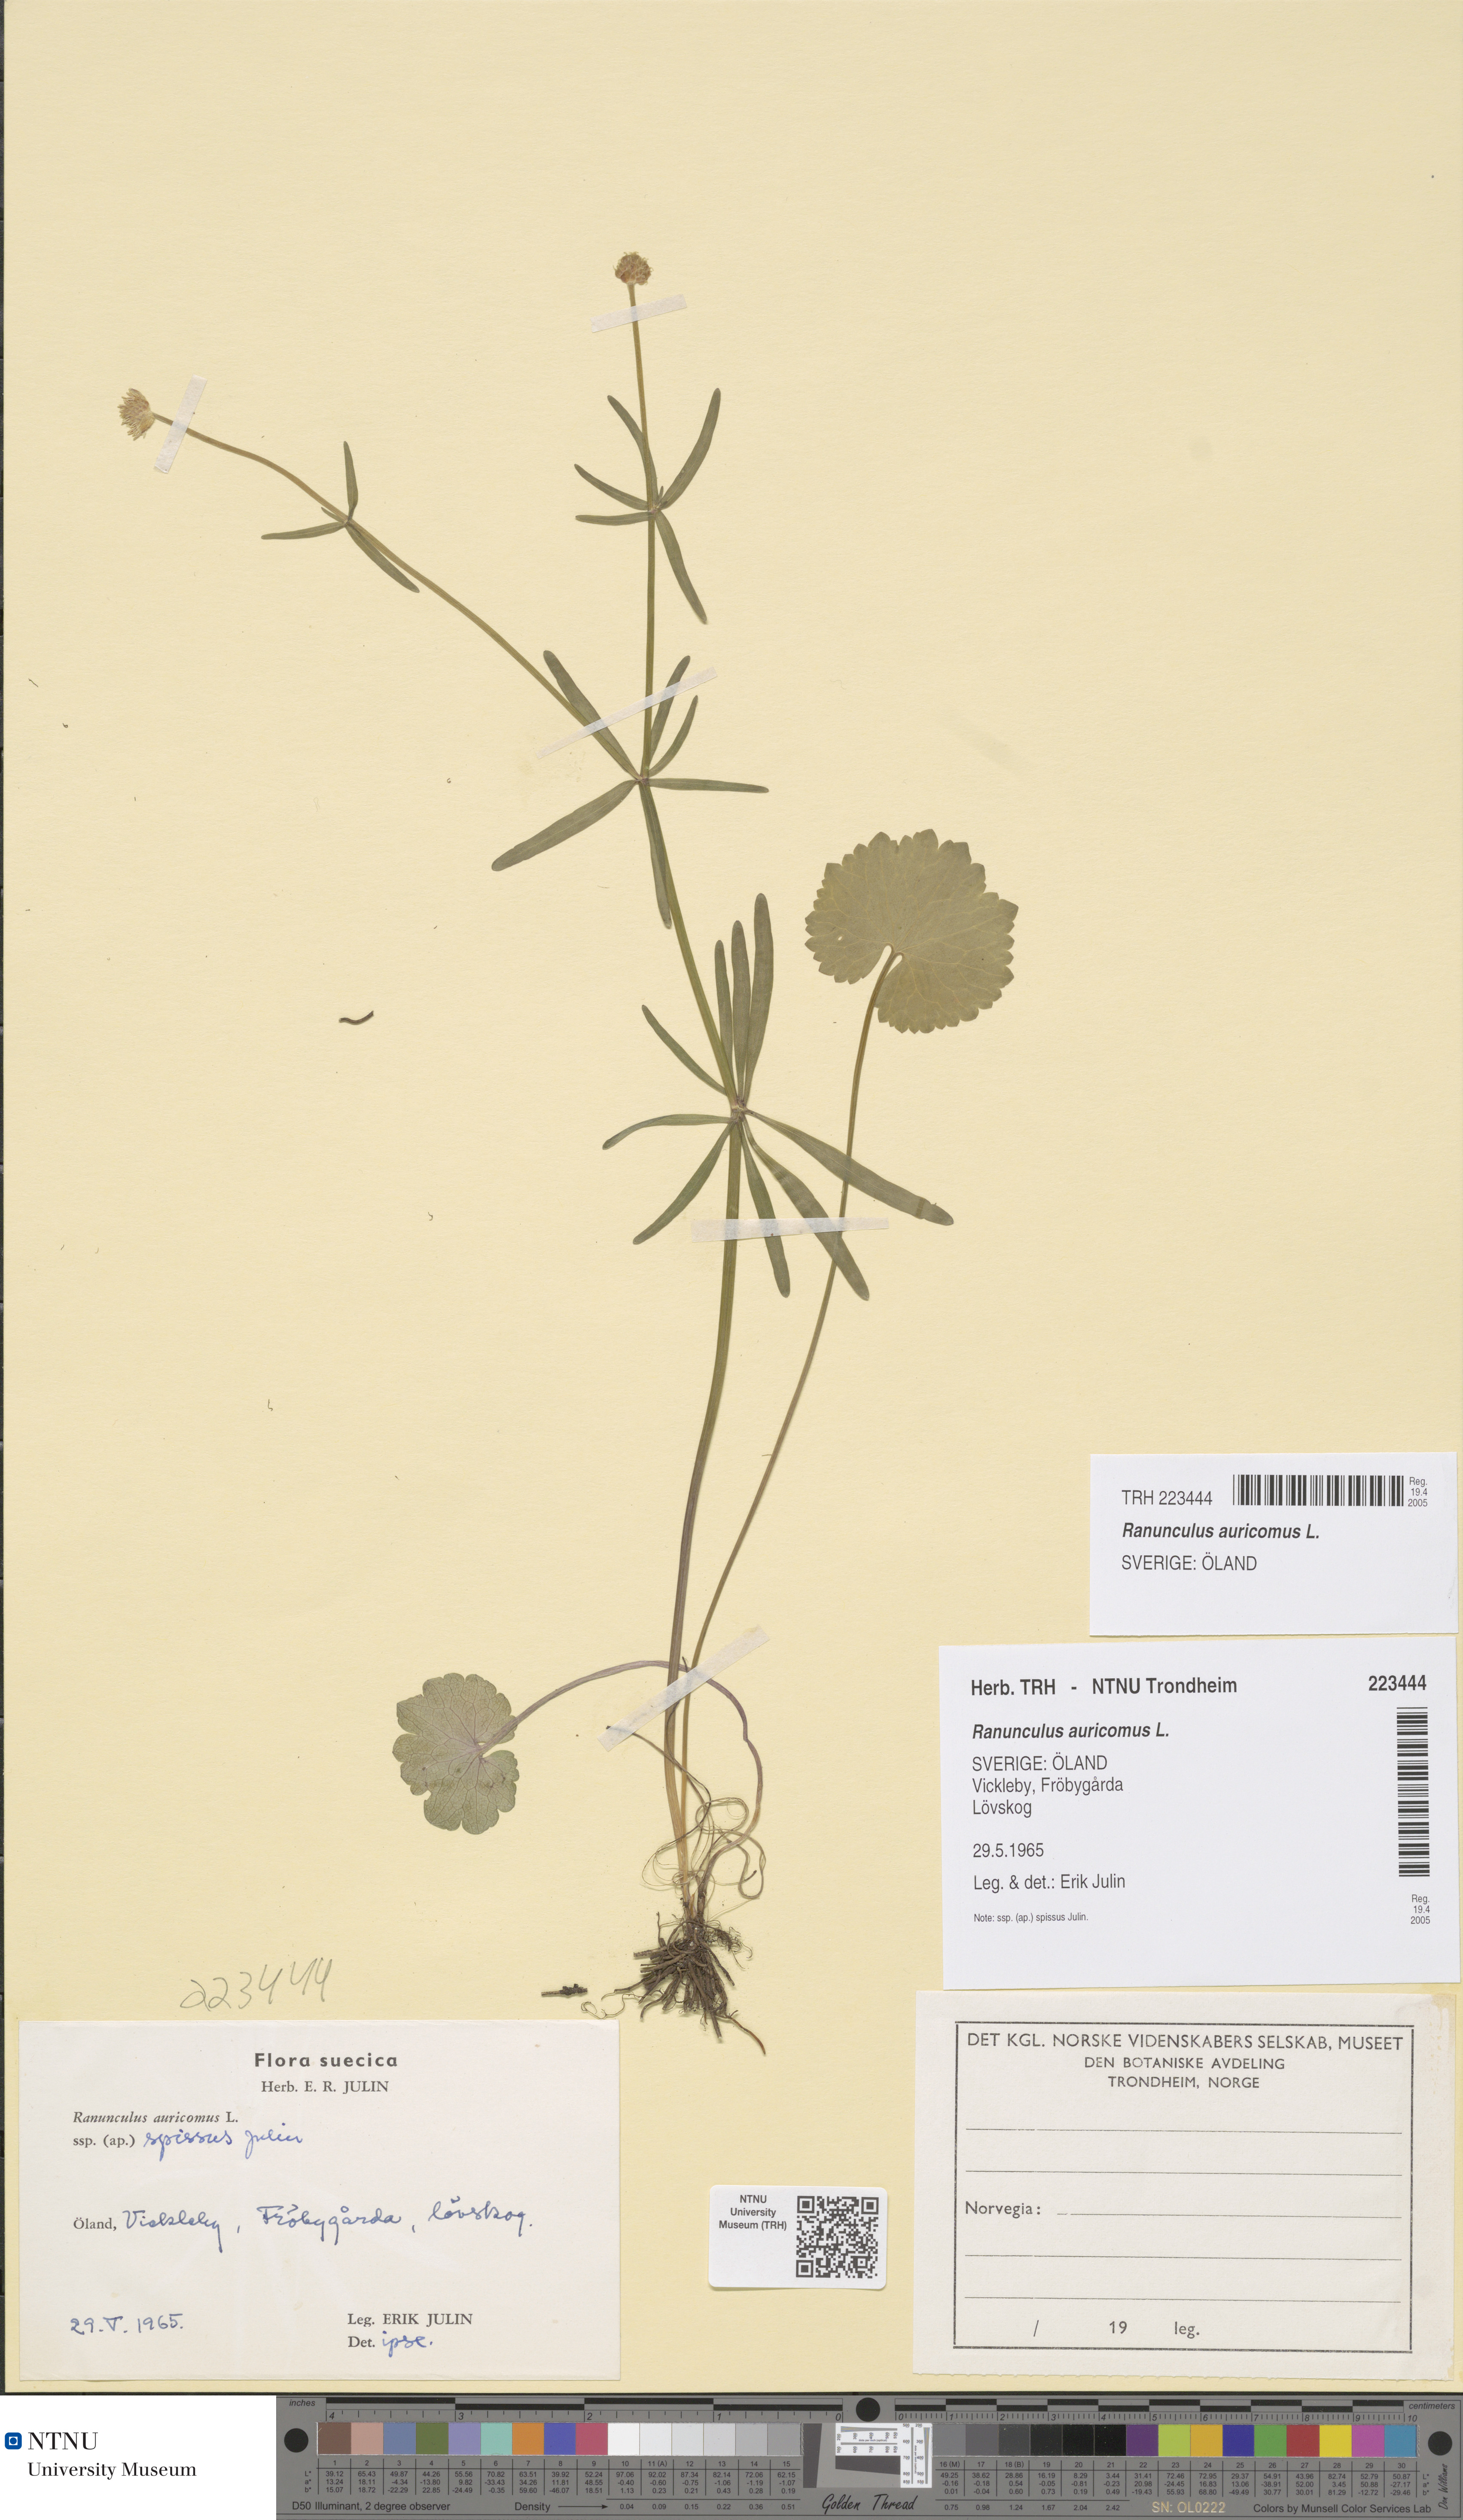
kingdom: Plantae
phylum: Tracheophyta
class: Magnoliopsida
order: Ranunculales
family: Ranunculaceae
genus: Ranunculus
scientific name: Ranunculus auricomus
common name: Goldilocks buttercup
